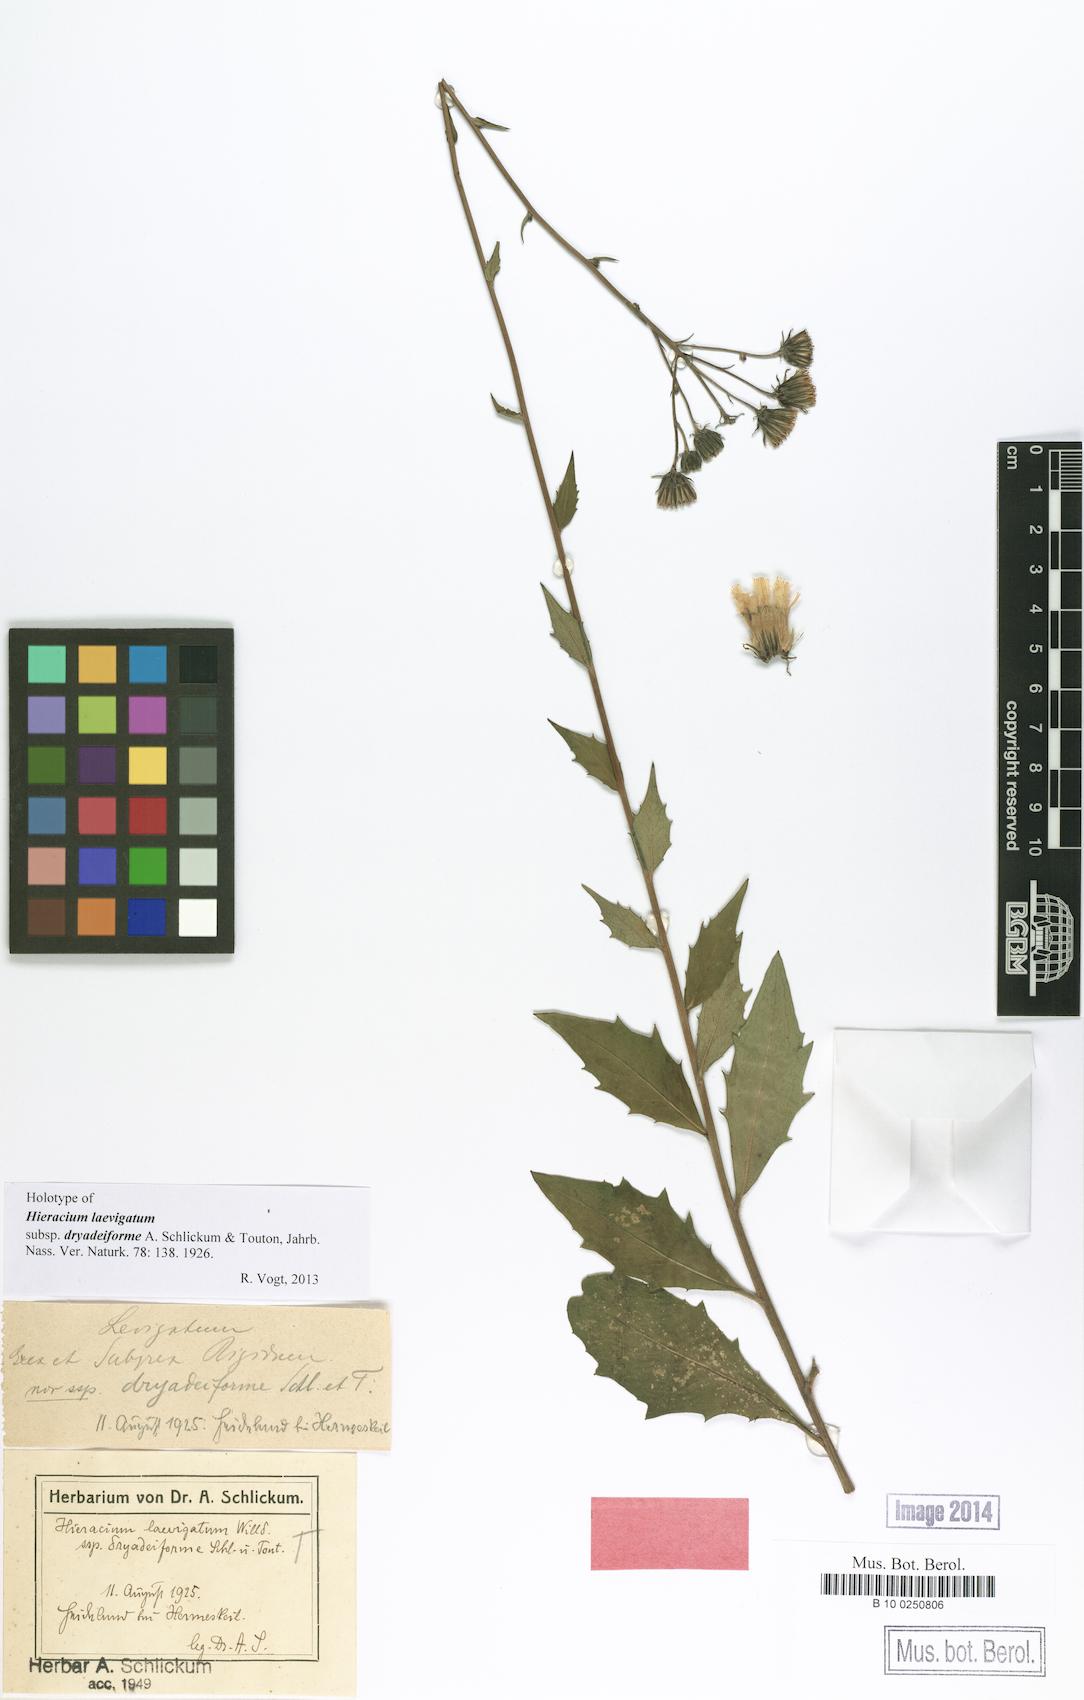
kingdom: Plantae
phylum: Tracheophyta
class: Magnoliopsida
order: Asterales
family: Asteraceae
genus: Hieracium
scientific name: Hieracium laevigatum
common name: Smooth hawkweed
